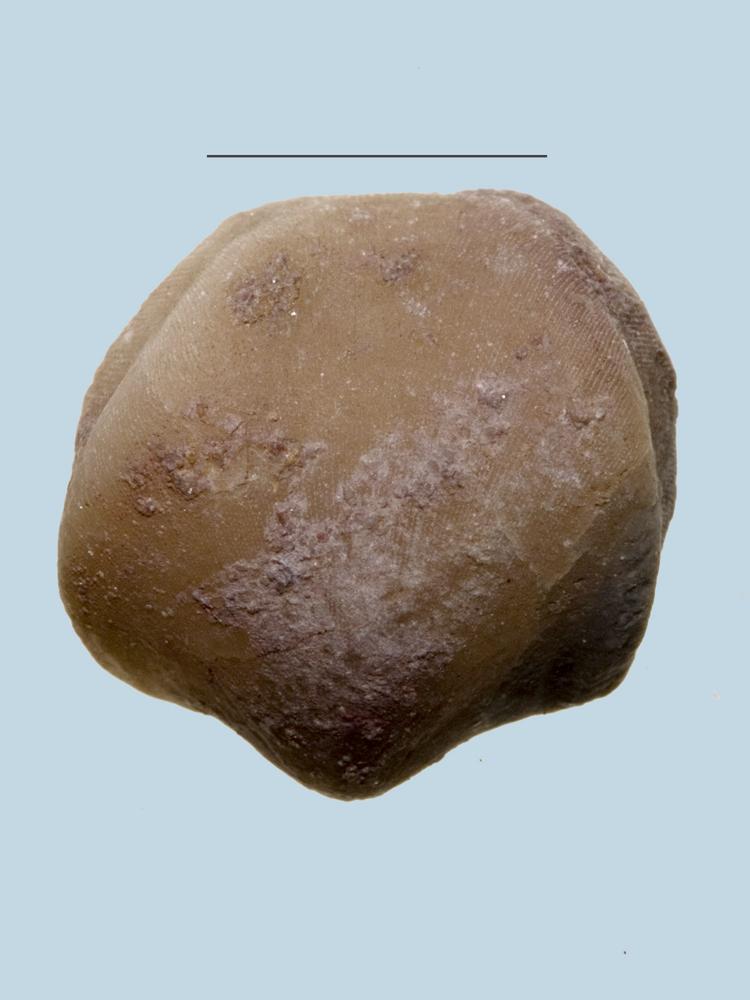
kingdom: Animalia
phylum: Brachiopoda
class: Rhynchonellata
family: Porambonitidae
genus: Porambonites
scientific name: Porambonites
